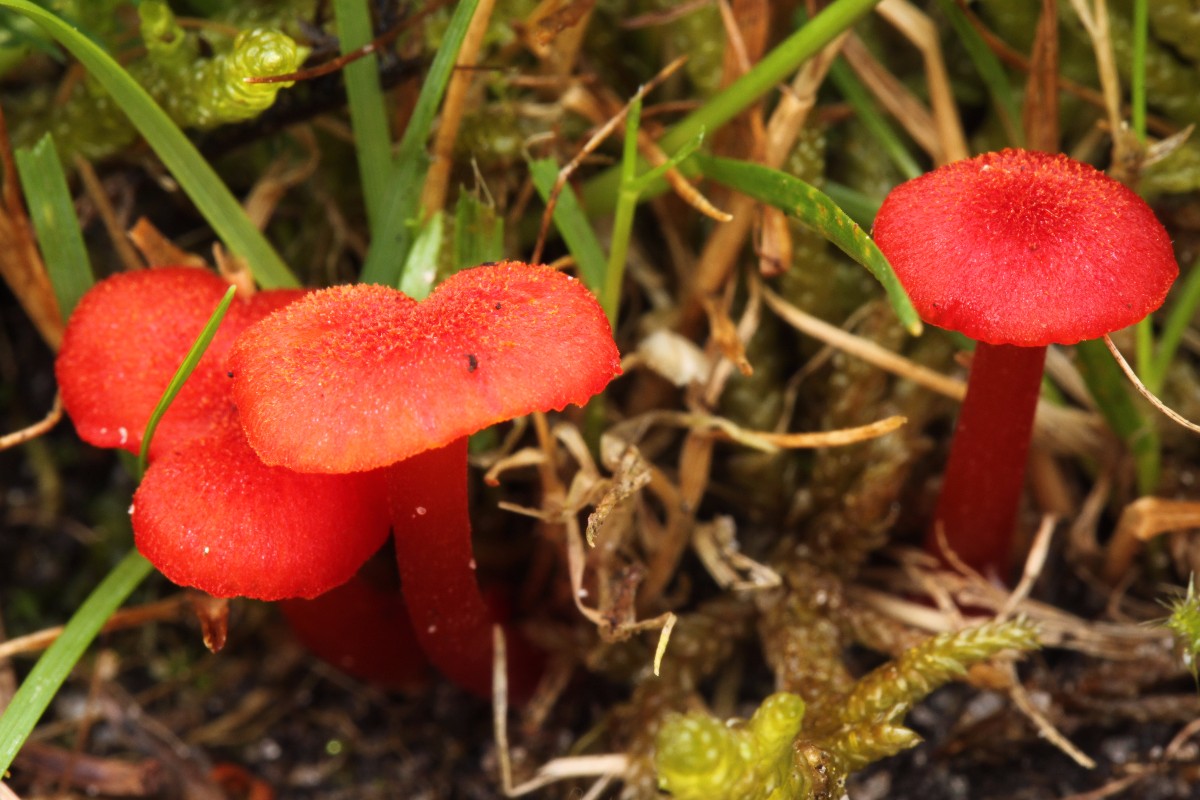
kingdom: Fungi
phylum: Basidiomycota
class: Agaricomycetes
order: Agaricales
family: Hygrophoraceae
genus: Hygrocybe
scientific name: Hygrocybe helobia
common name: hvidløgs-vokshat
